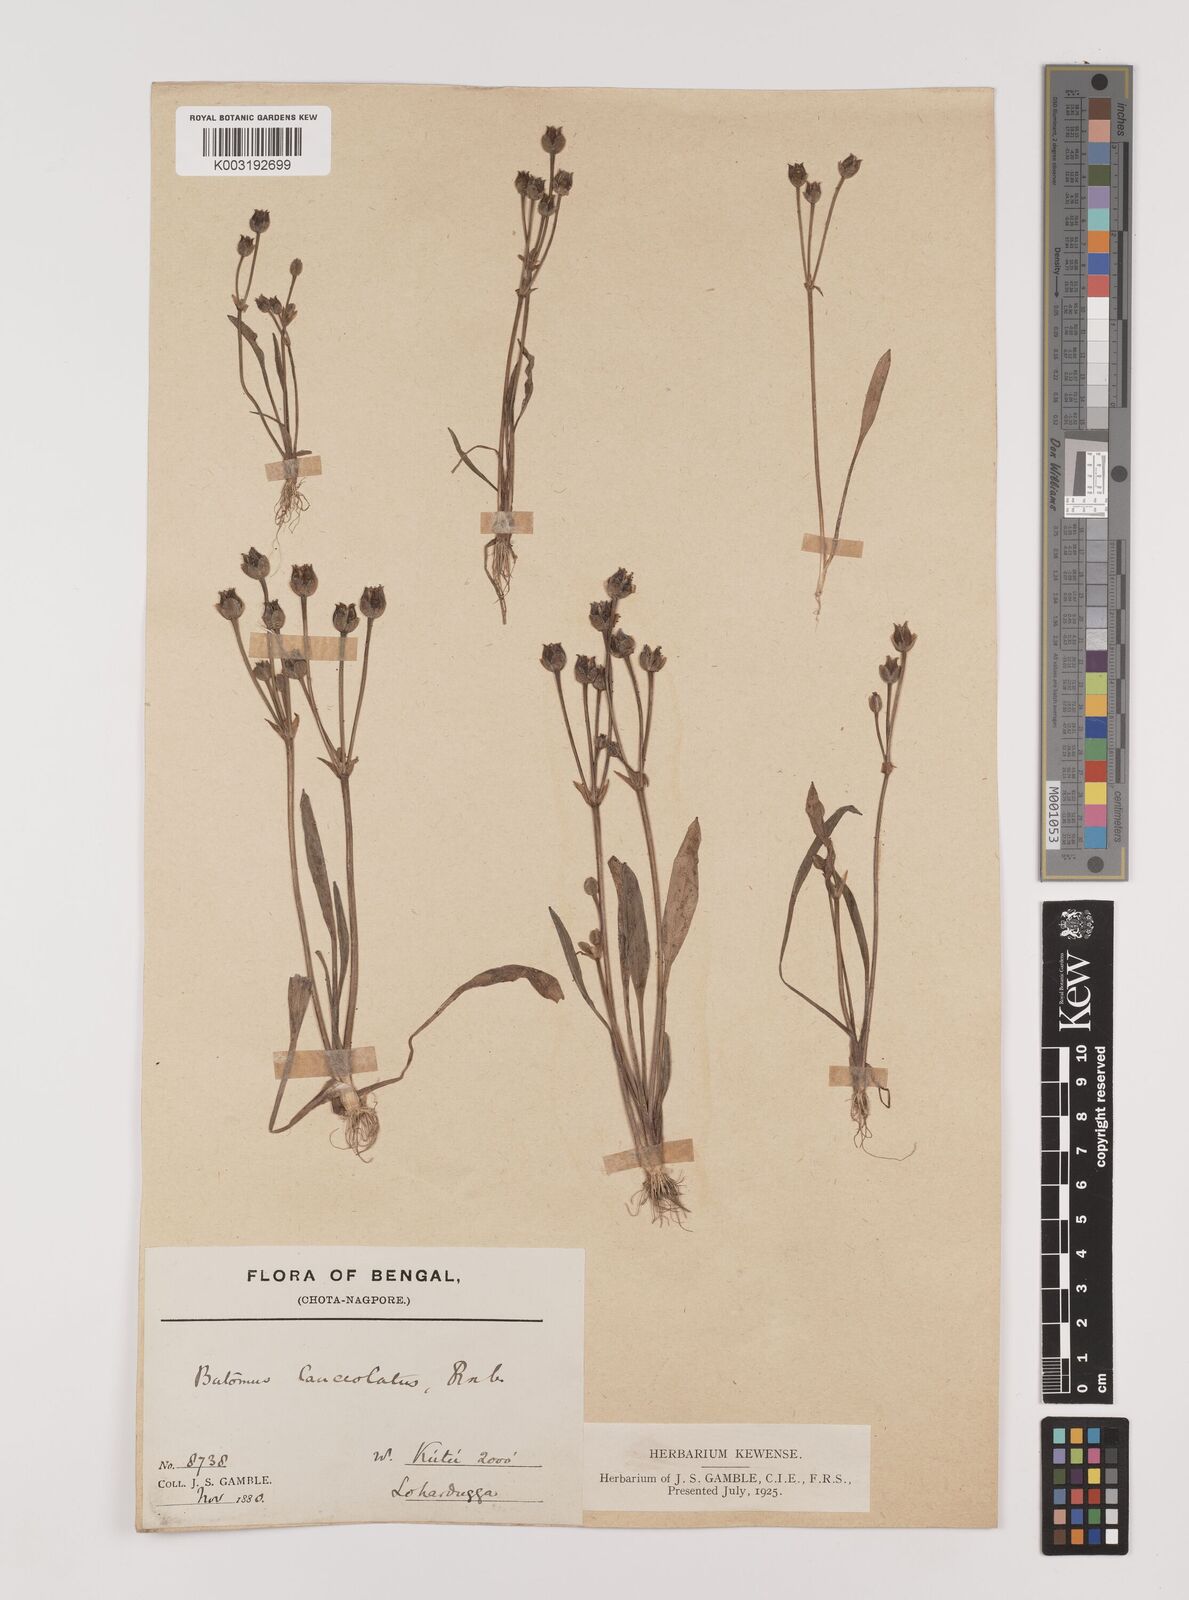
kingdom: Plantae
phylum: Tracheophyta
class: Liliopsida
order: Alismatales
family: Alismataceae
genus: Butomopsis
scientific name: Butomopsis latifolia
